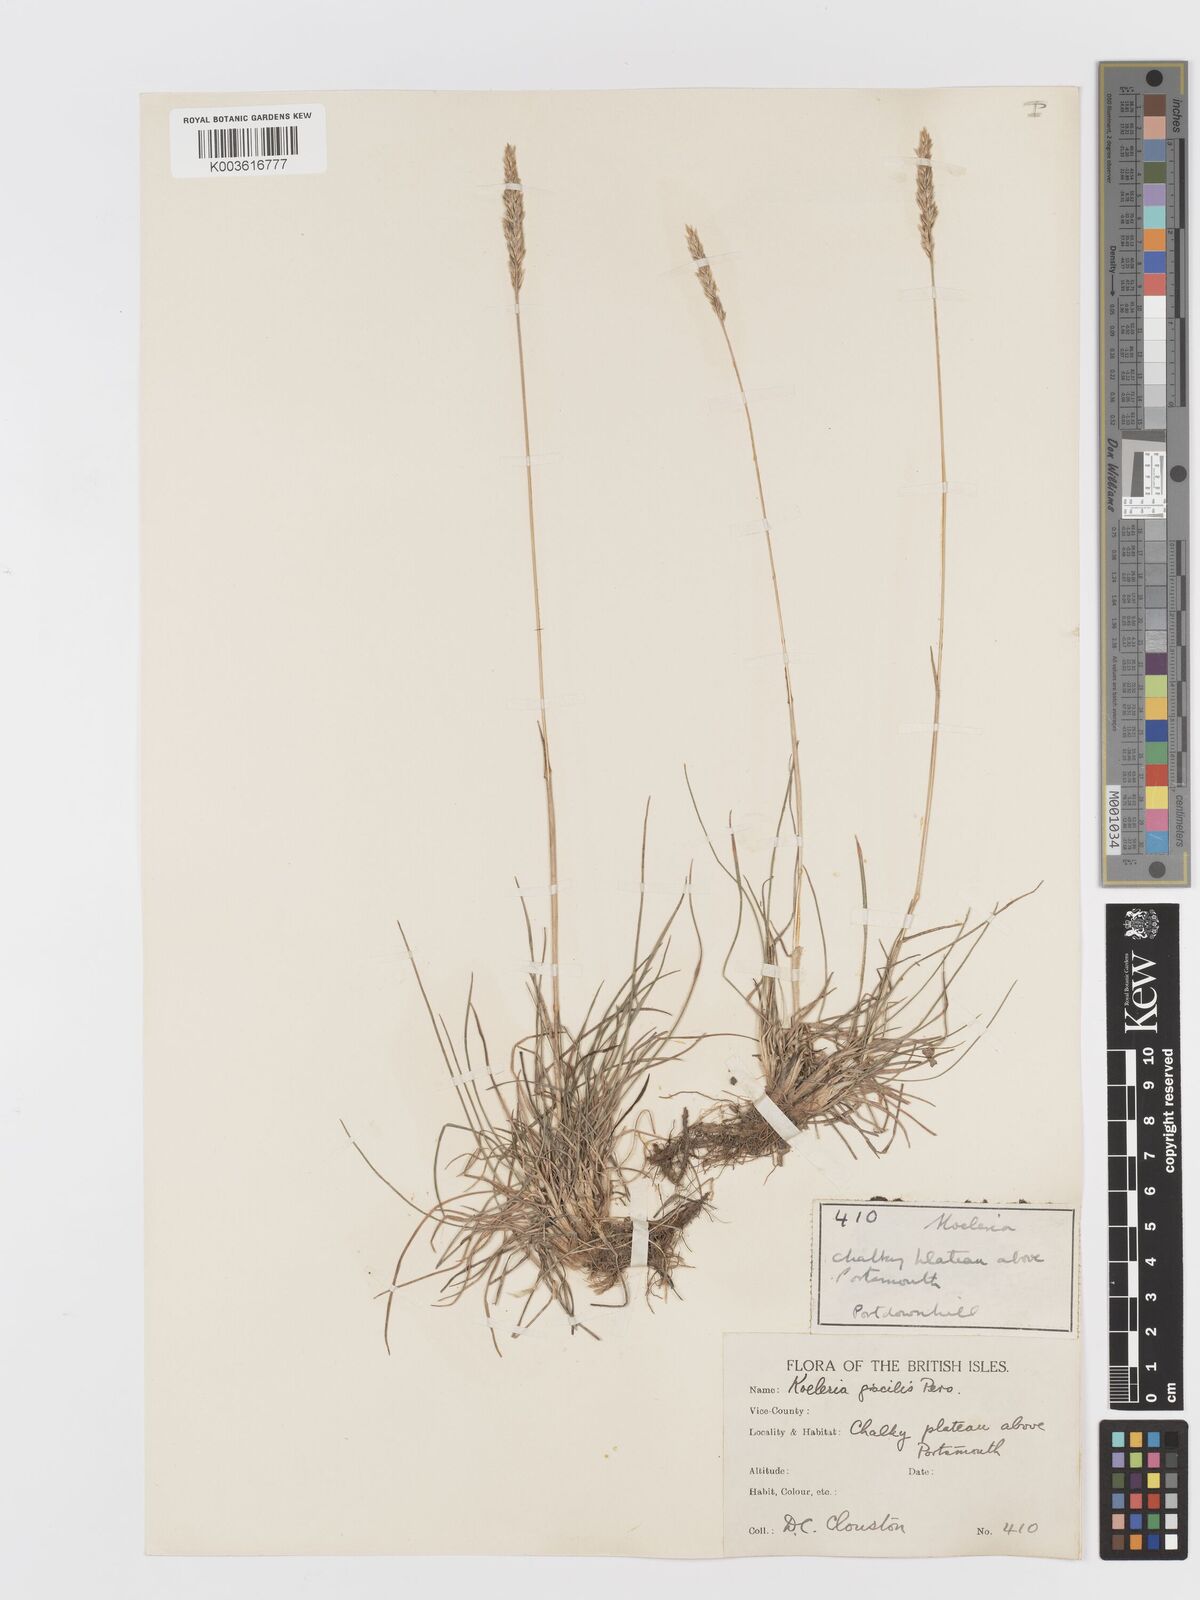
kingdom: Plantae
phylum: Tracheophyta
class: Liliopsida
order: Poales
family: Poaceae
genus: Koeleria
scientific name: Koeleria macrantha
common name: Crested hair-grass
